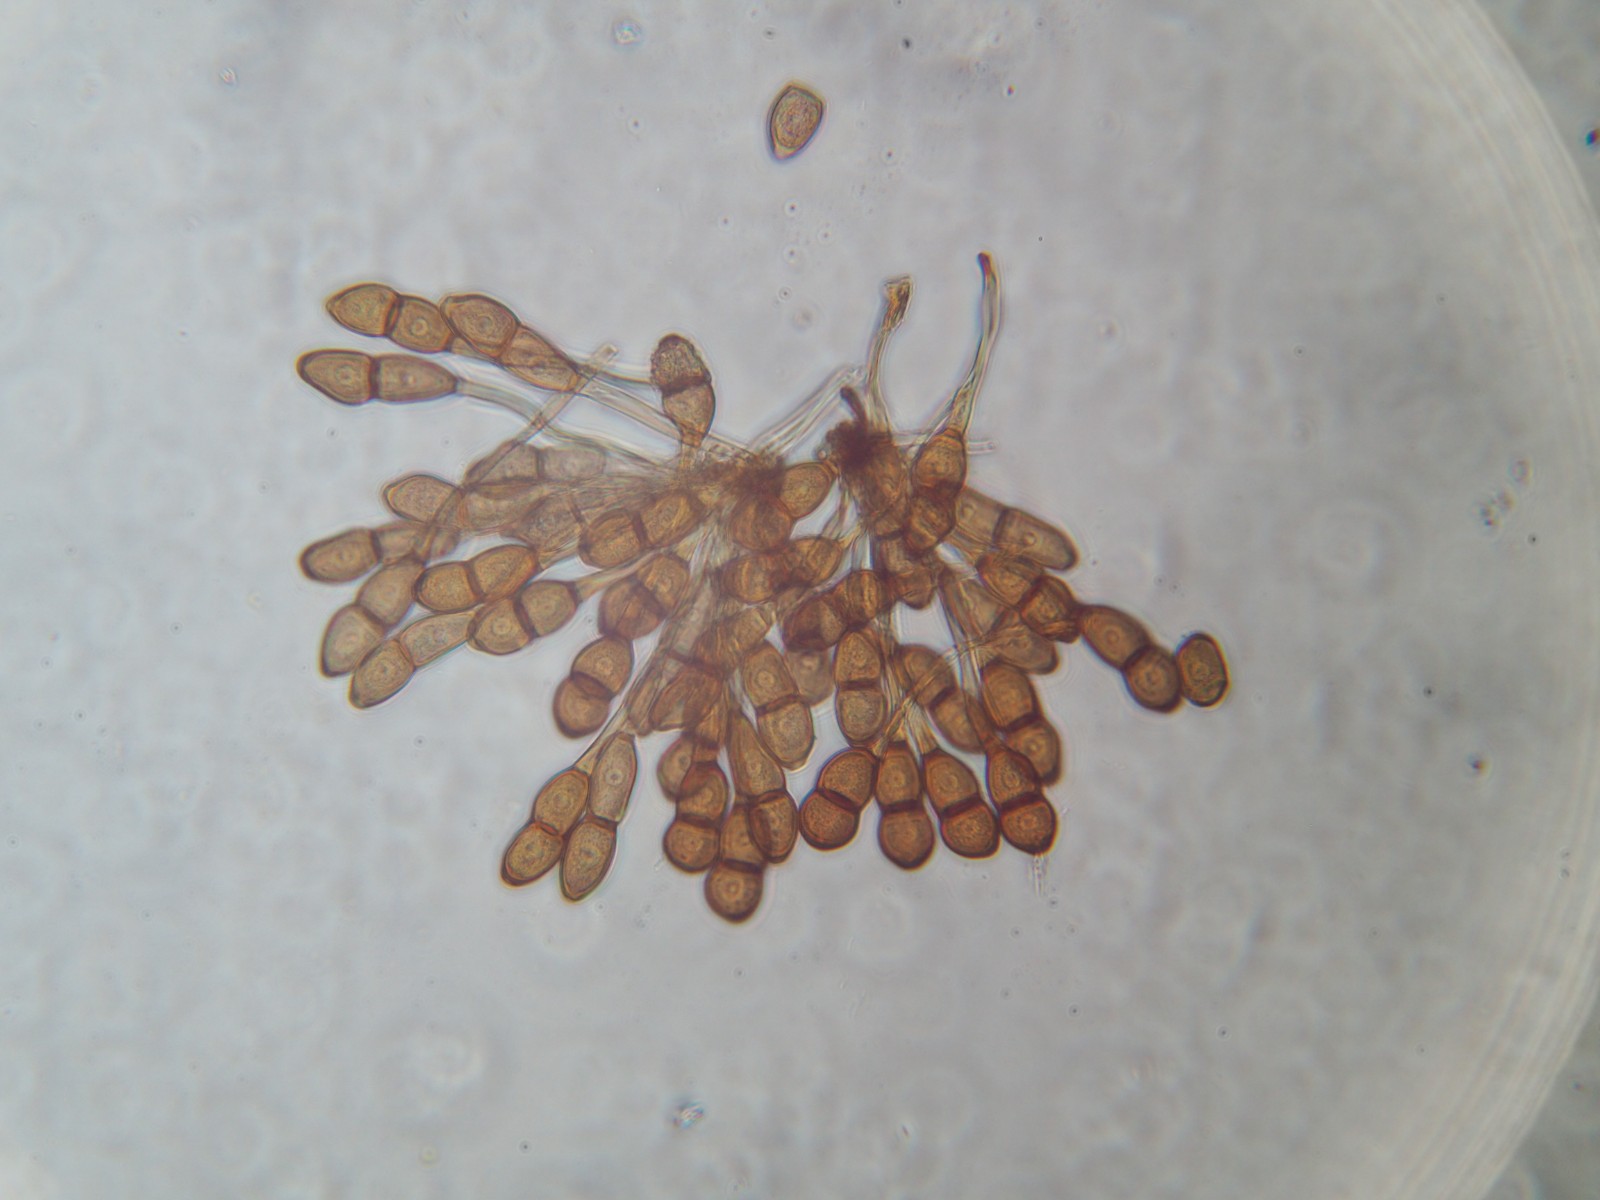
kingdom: Fungi
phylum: Basidiomycota
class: Pucciniomycetes
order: Pucciniales
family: Pucciniaceae
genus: Puccinia
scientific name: Puccinia graminis
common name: græssernes tvecellerust
